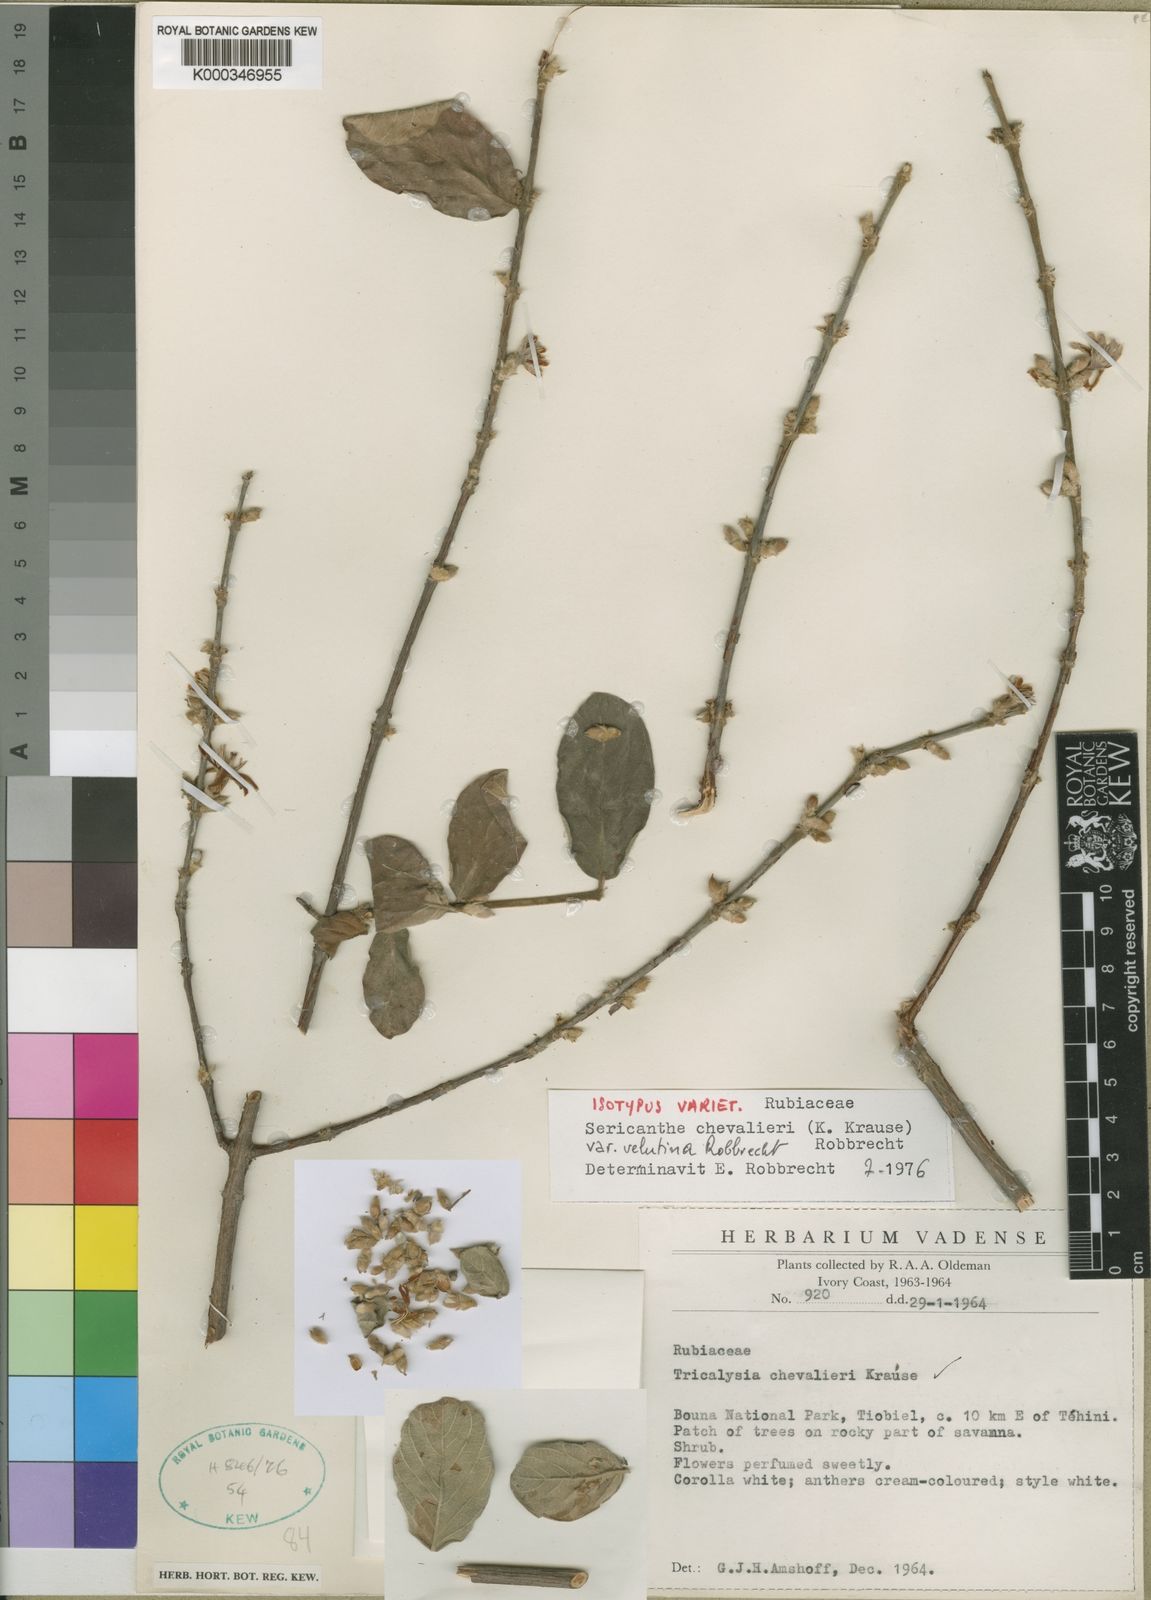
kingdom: Plantae
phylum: Tracheophyta
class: Magnoliopsida
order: Gentianales
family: Rubiaceae
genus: Sericanthe
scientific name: Sericanthe chevalieri
